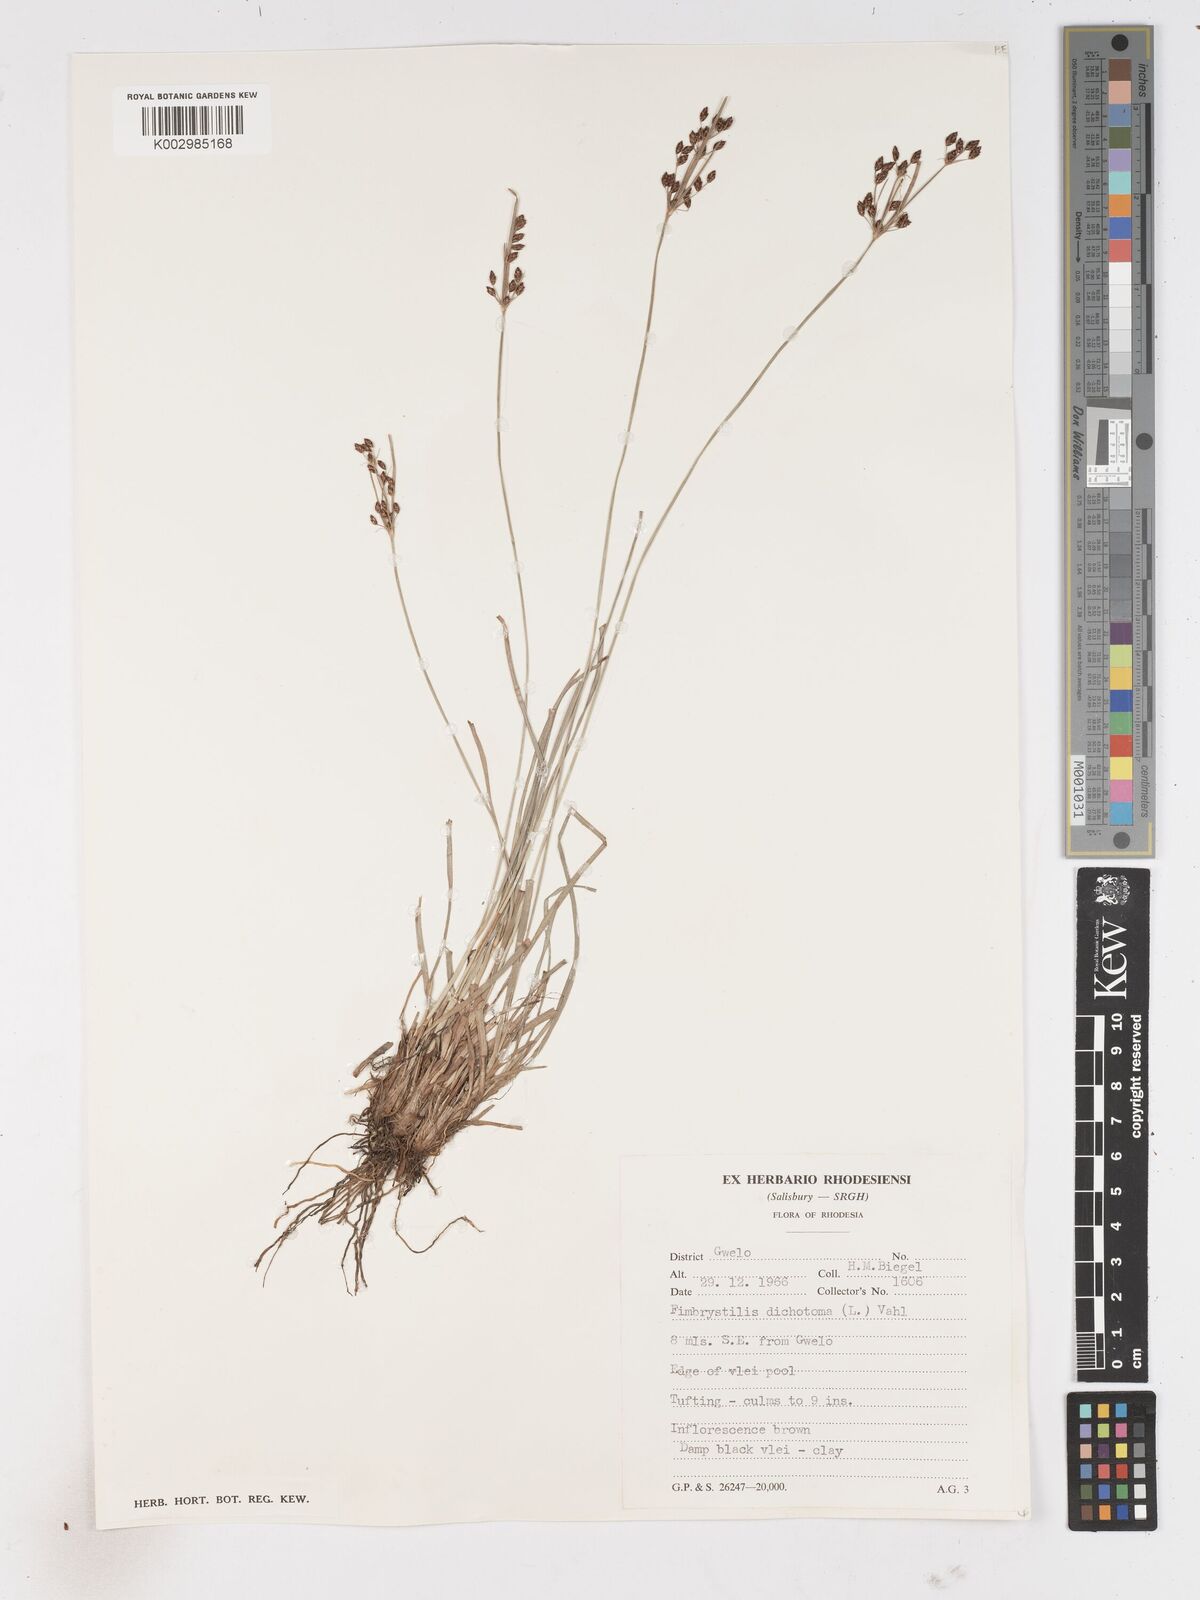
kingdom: Plantae
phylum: Tracheophyta
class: Liliopsida
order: Poales
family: Cyperaceae
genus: Fimbristylis
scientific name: Fimbristylis dichotoma
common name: Forked fimbry
